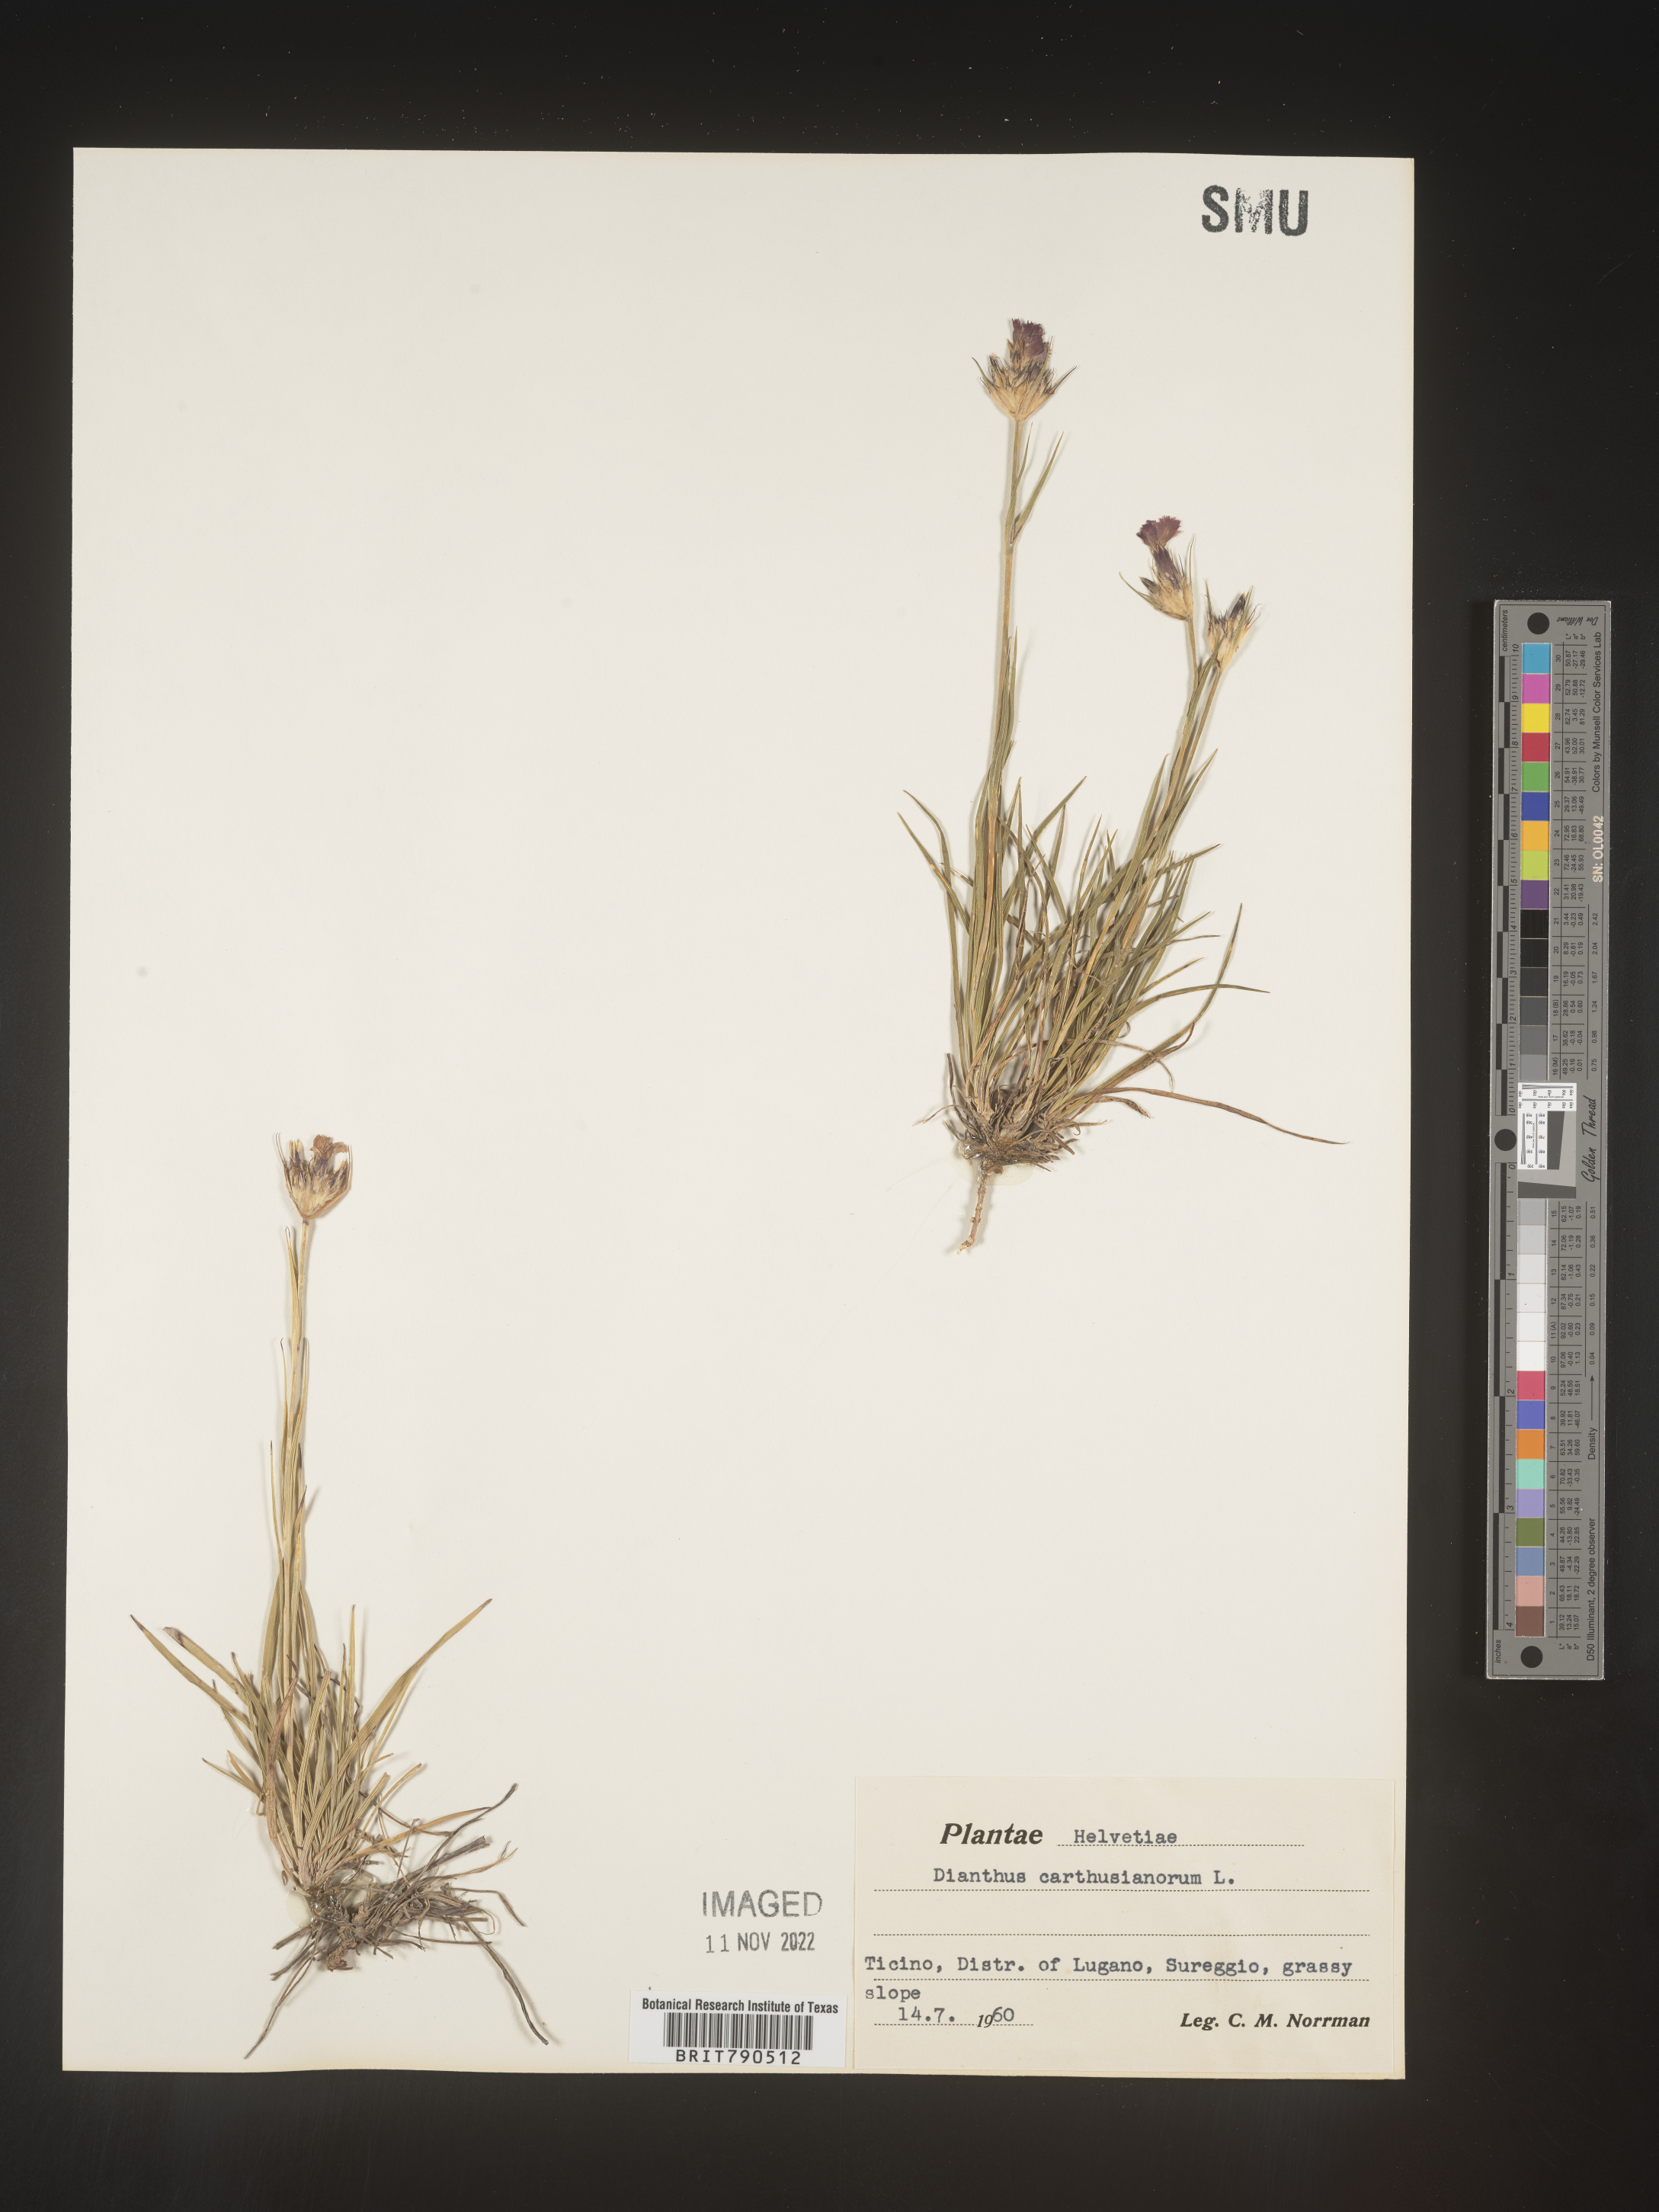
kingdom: Plantae
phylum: Tracheophyta
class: Magnoliopsida
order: Caryophyllales
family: Caryophyllaceae
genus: Dianthus
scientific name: Dianthus carthusianorum
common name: Carthusian pink
